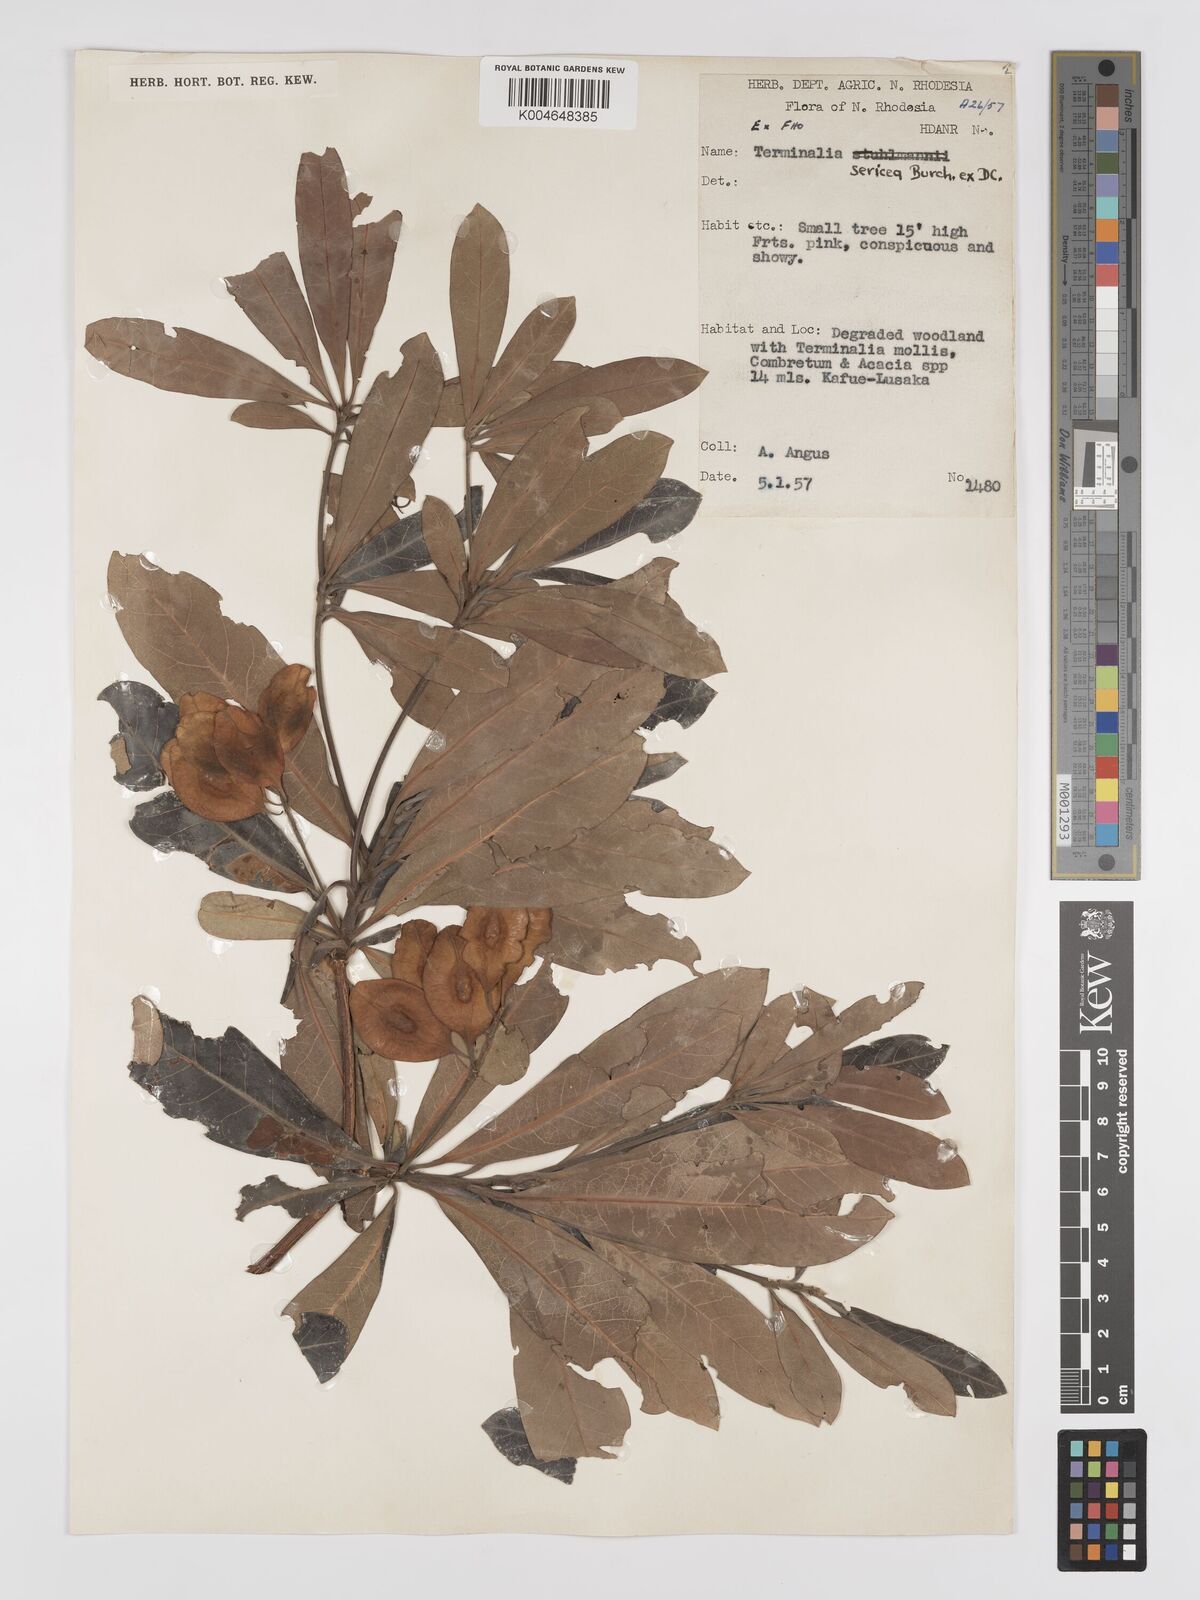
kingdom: Plantae
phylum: Tracheophyta
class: Magnoliopsida
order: Myrtales
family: Combretaceae
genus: Terminalia
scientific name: Terminalia
